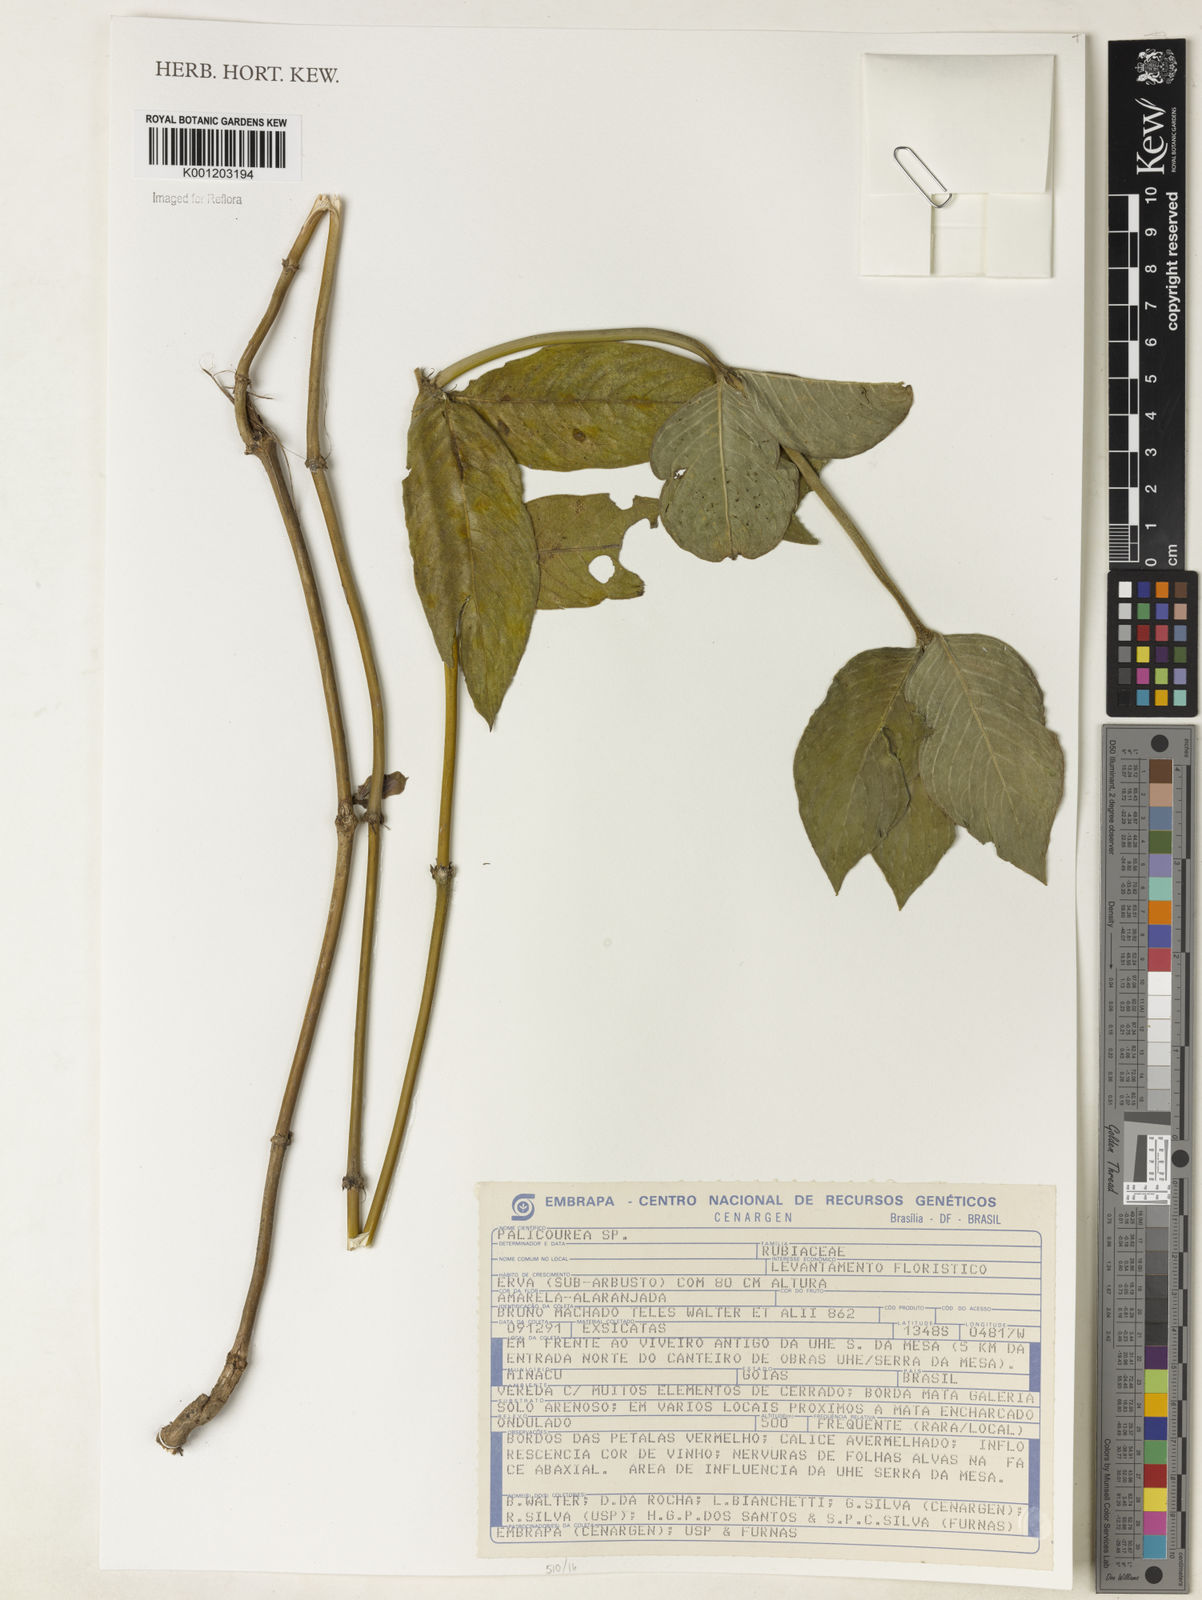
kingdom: Plantae
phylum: Tracheophyta
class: Magnoliopsida
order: Gentianales
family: Rubiaceae
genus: Palicourea
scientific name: Palicourea
